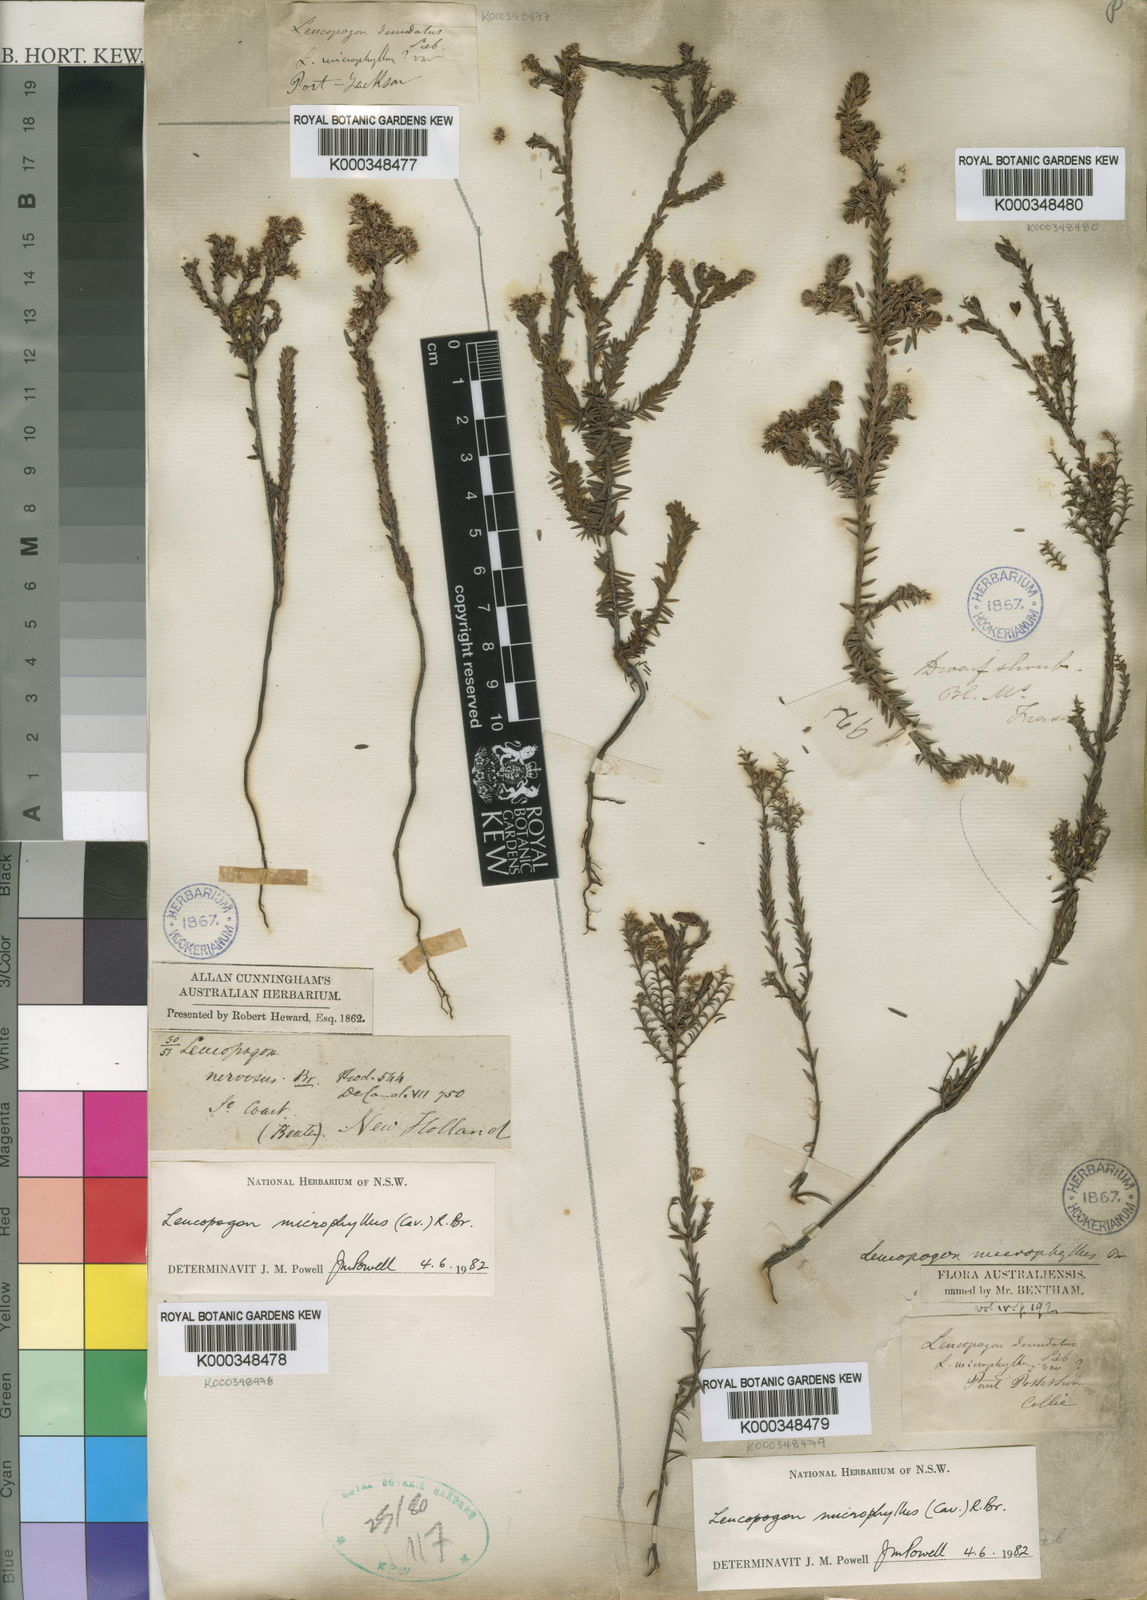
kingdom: Plantae
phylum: Tracheophyta
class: Magnoliopsida
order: Ericales
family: Ericaceae
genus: Leucopogon
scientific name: Leucopogon microphyllus
